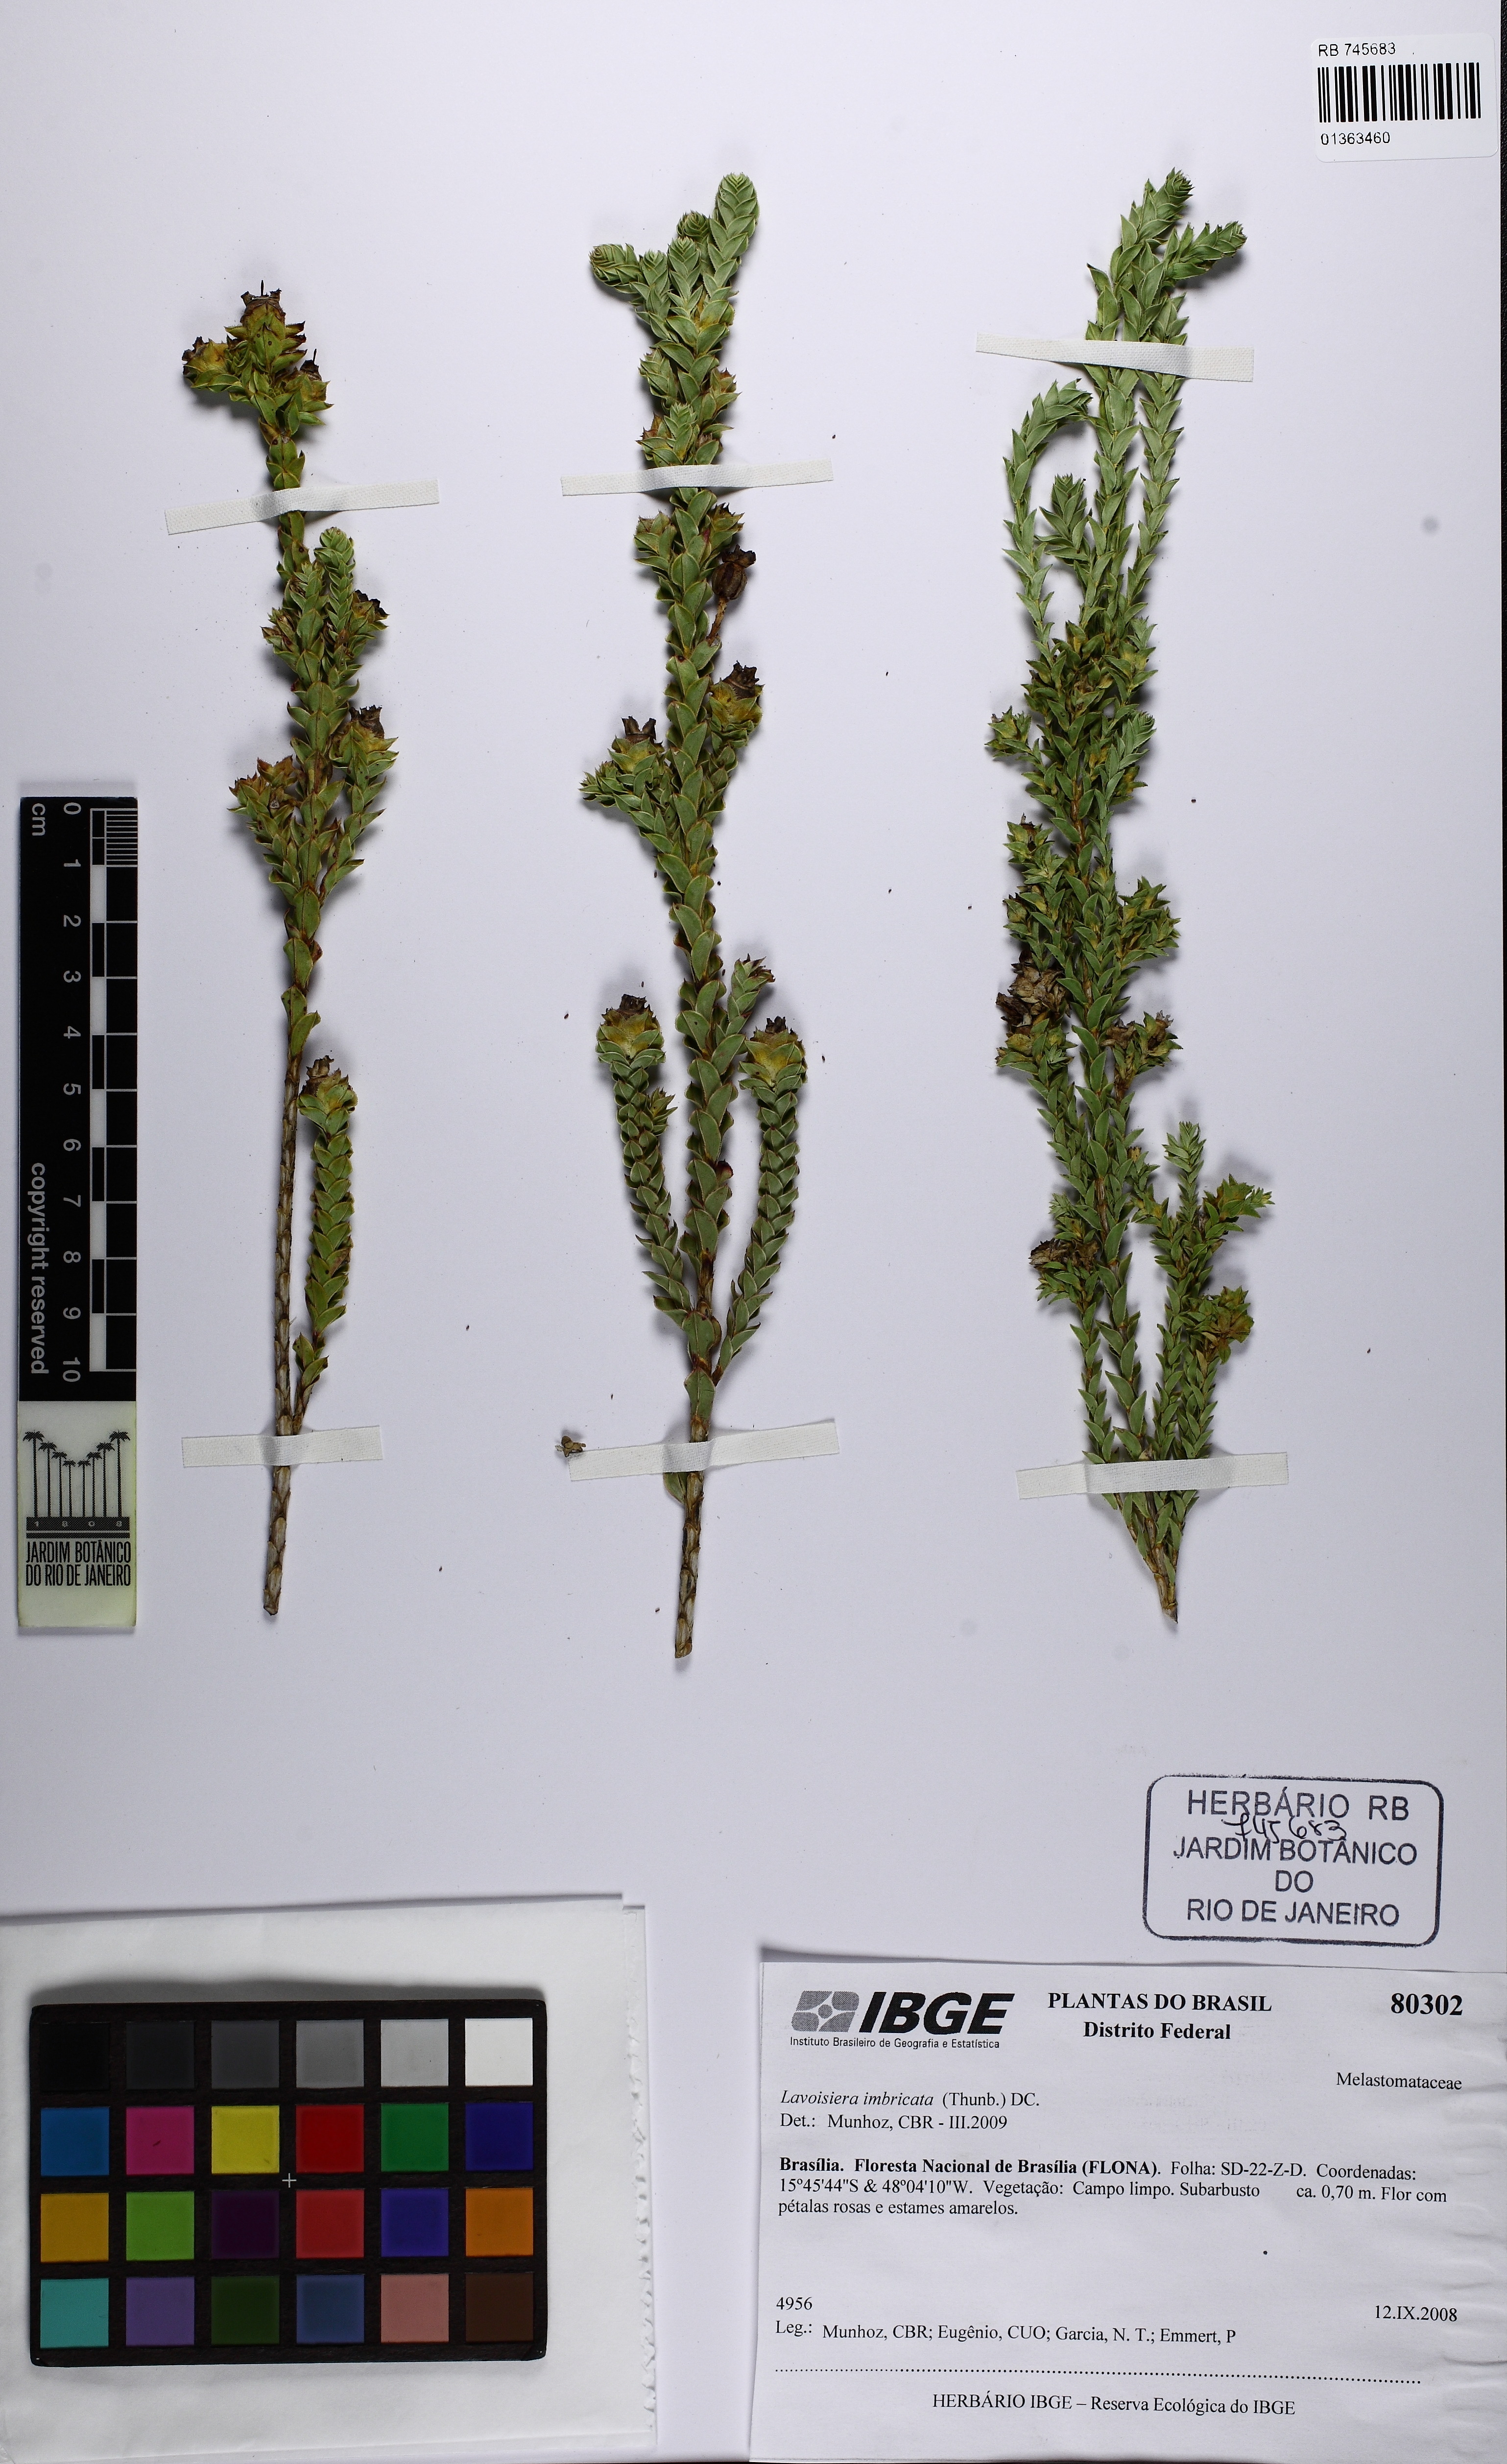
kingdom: Plantae
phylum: Tracheophyta
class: Magnoliopsida
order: Myrtales
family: Melastomataceae
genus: Microlicia
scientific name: Microlicia cataphracta
